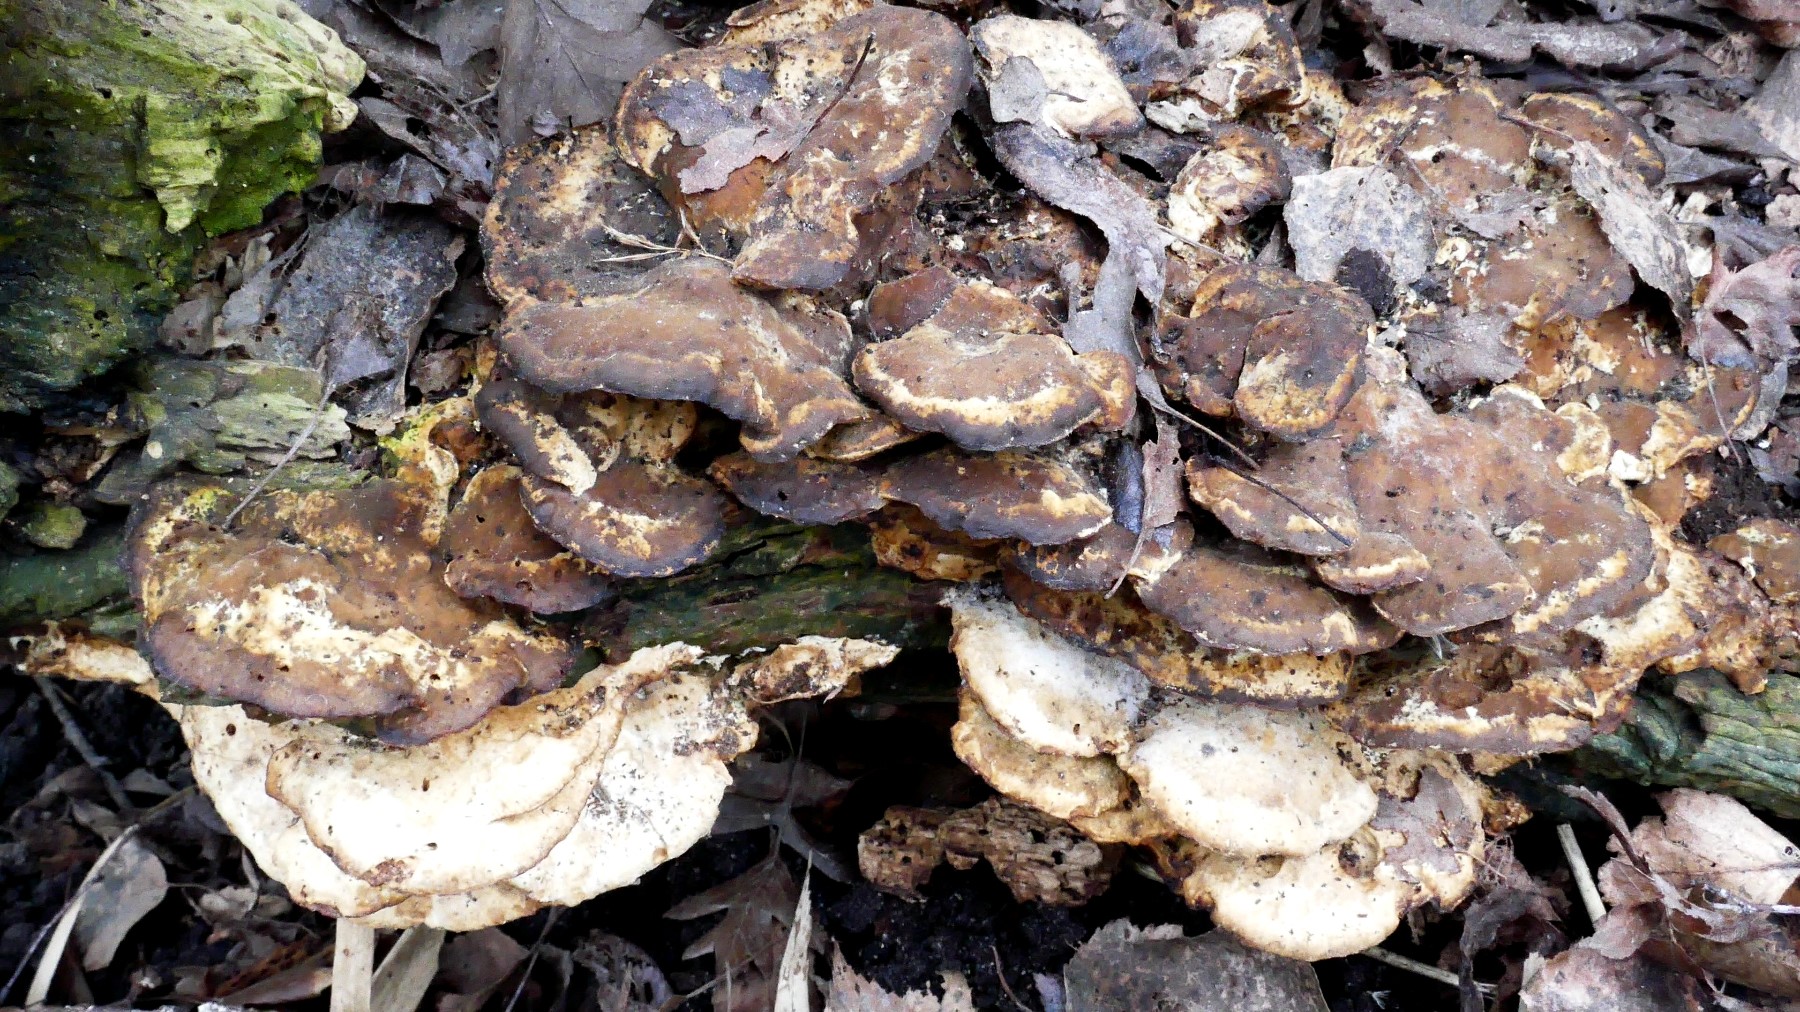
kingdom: Fungi
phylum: Basidiomycota
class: Agaricomycetes
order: Polyporales
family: Phanerochaetaceae
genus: Bjerkandera
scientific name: Bjerkandera fumosa
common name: grågul sodporesvamp
